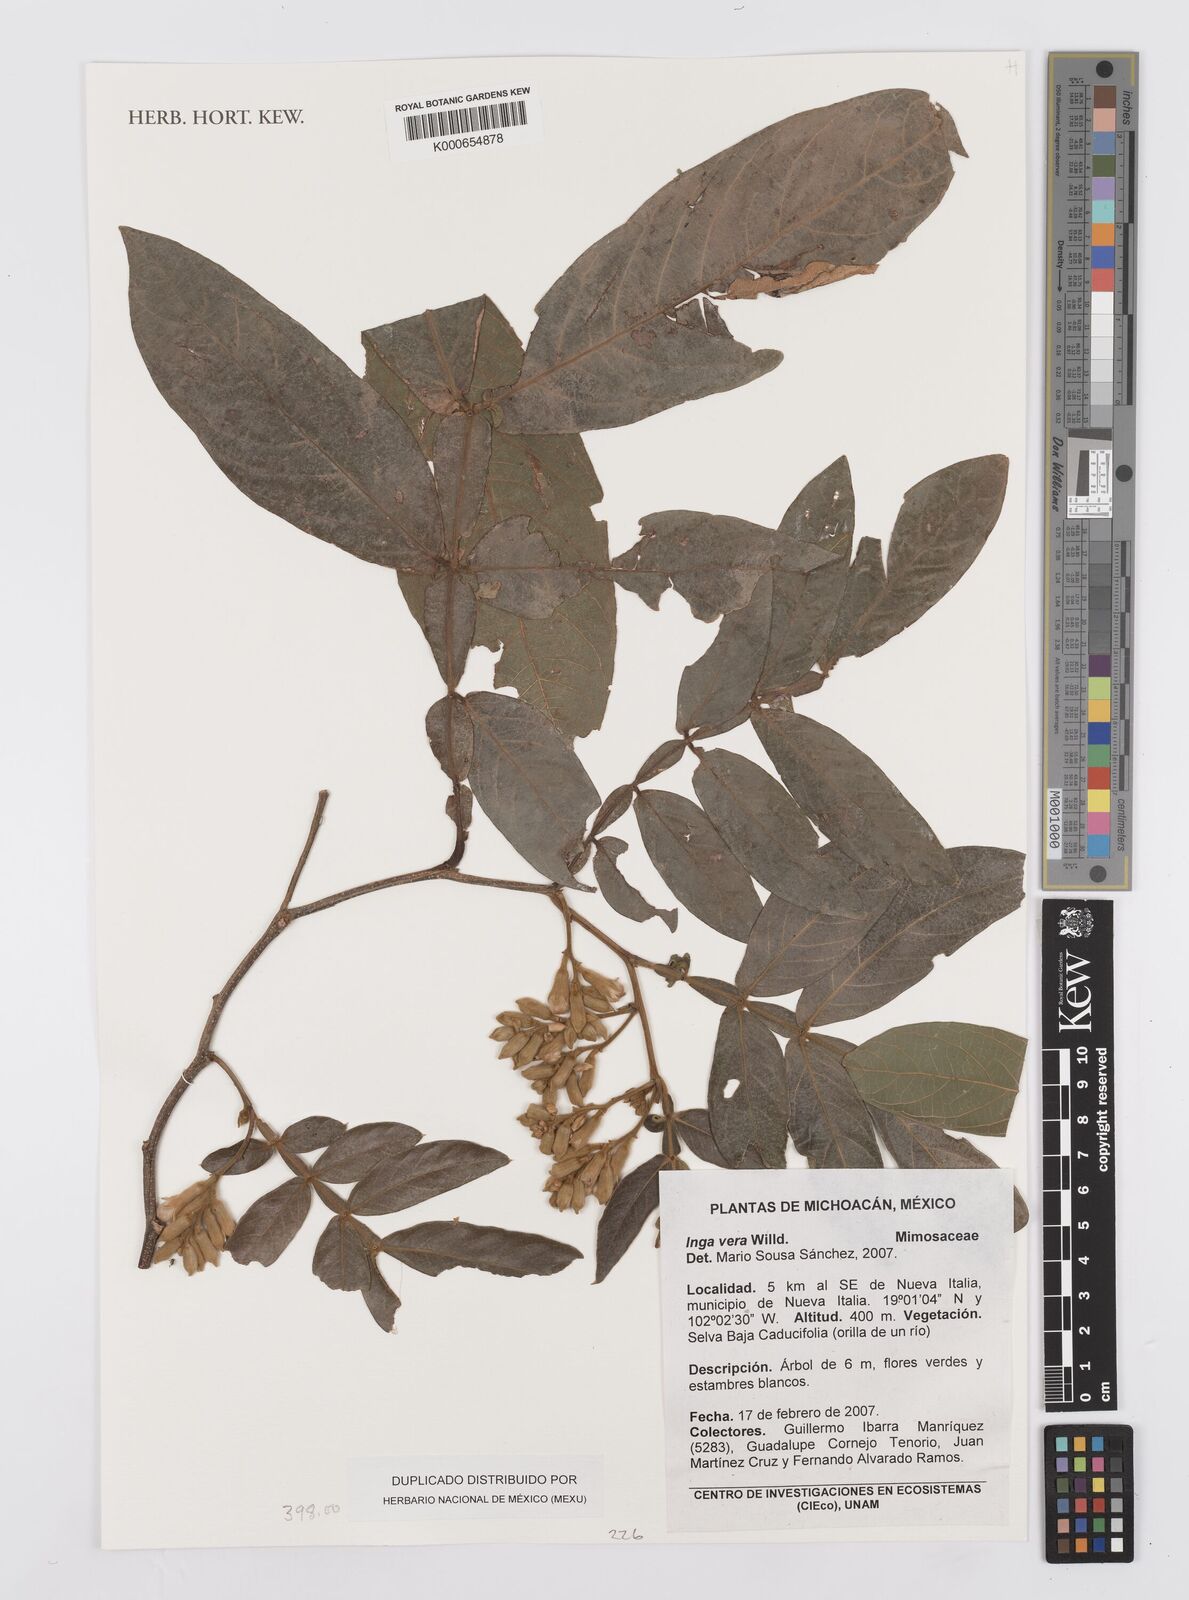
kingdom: Plantae
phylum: Tracheophyta
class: Magnoliopsida
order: Fabales
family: Fabaceae
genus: Inga
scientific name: Inga vera
